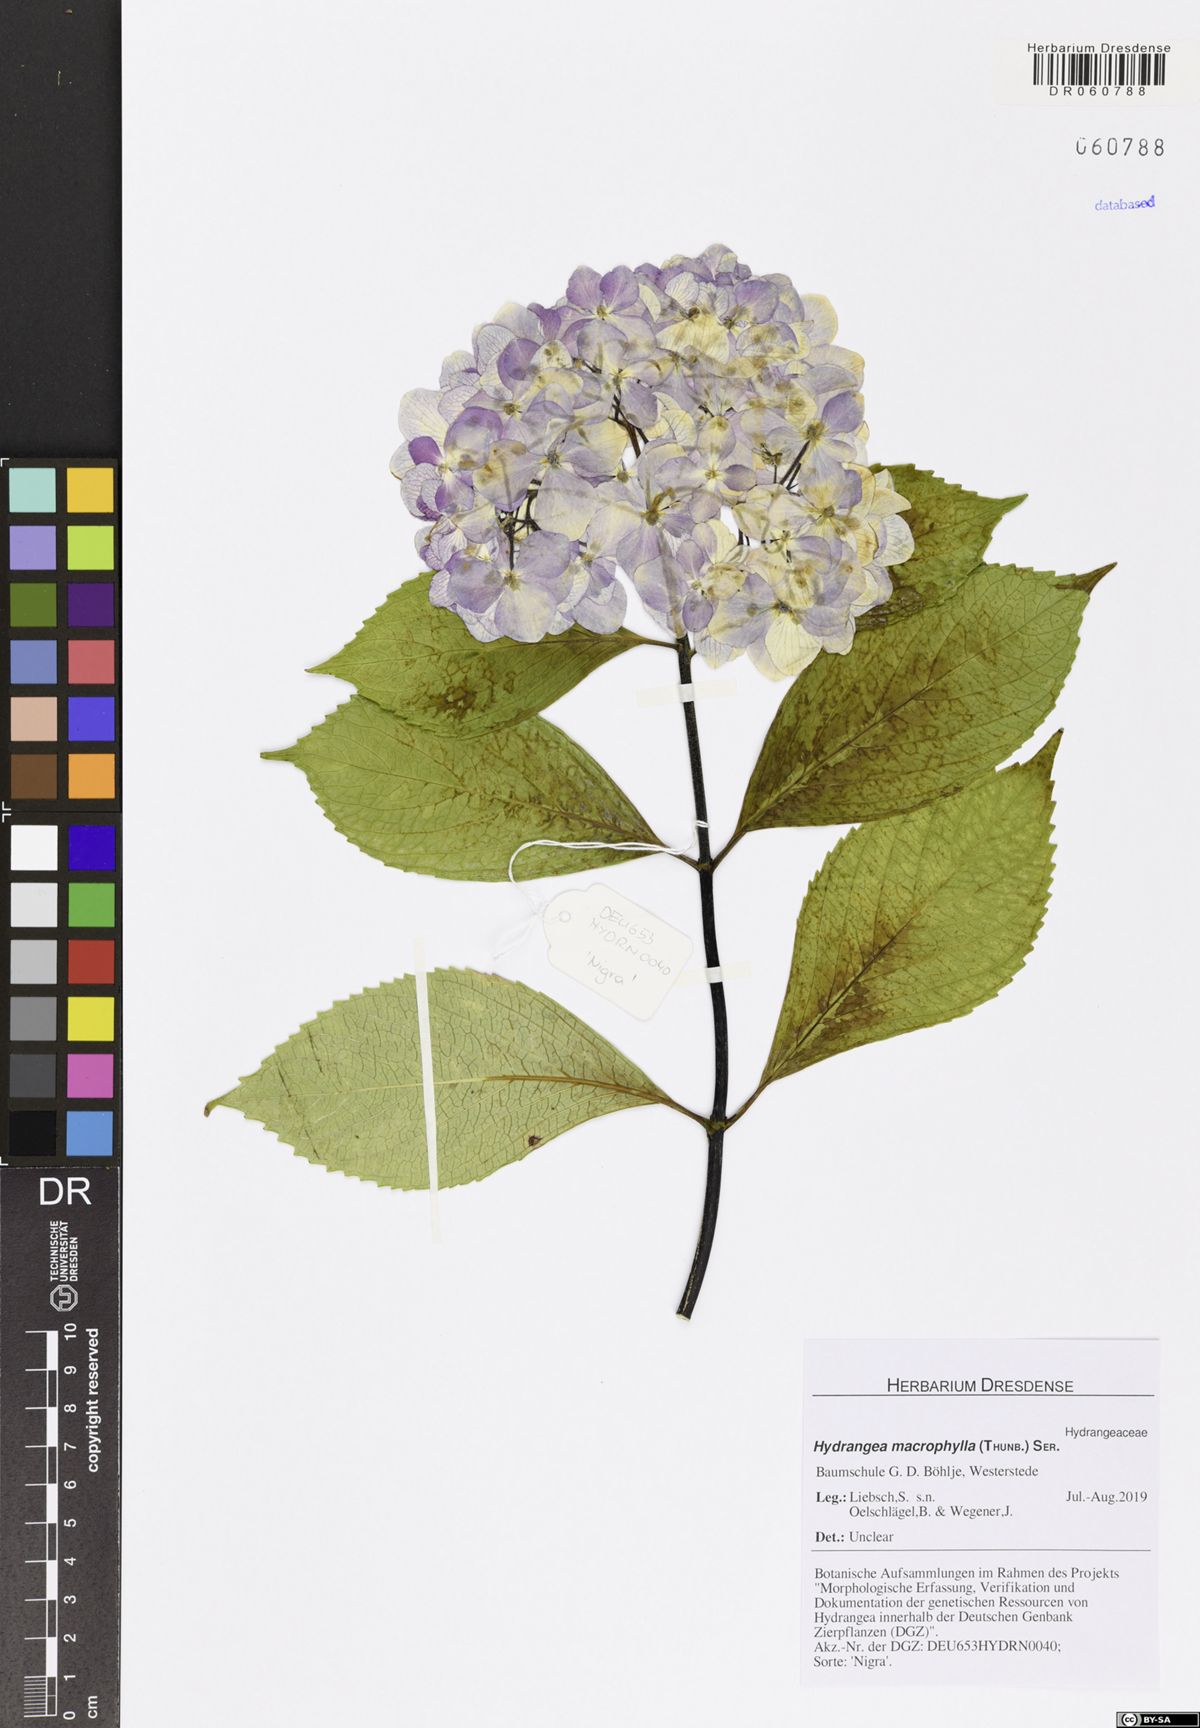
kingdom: Plantae
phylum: Tracheophyta
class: Magnoliopsida
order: Cornales
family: Hydrangeaceae
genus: Hydrangea
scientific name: Hydrangea macrophylla
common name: Hydrangea
